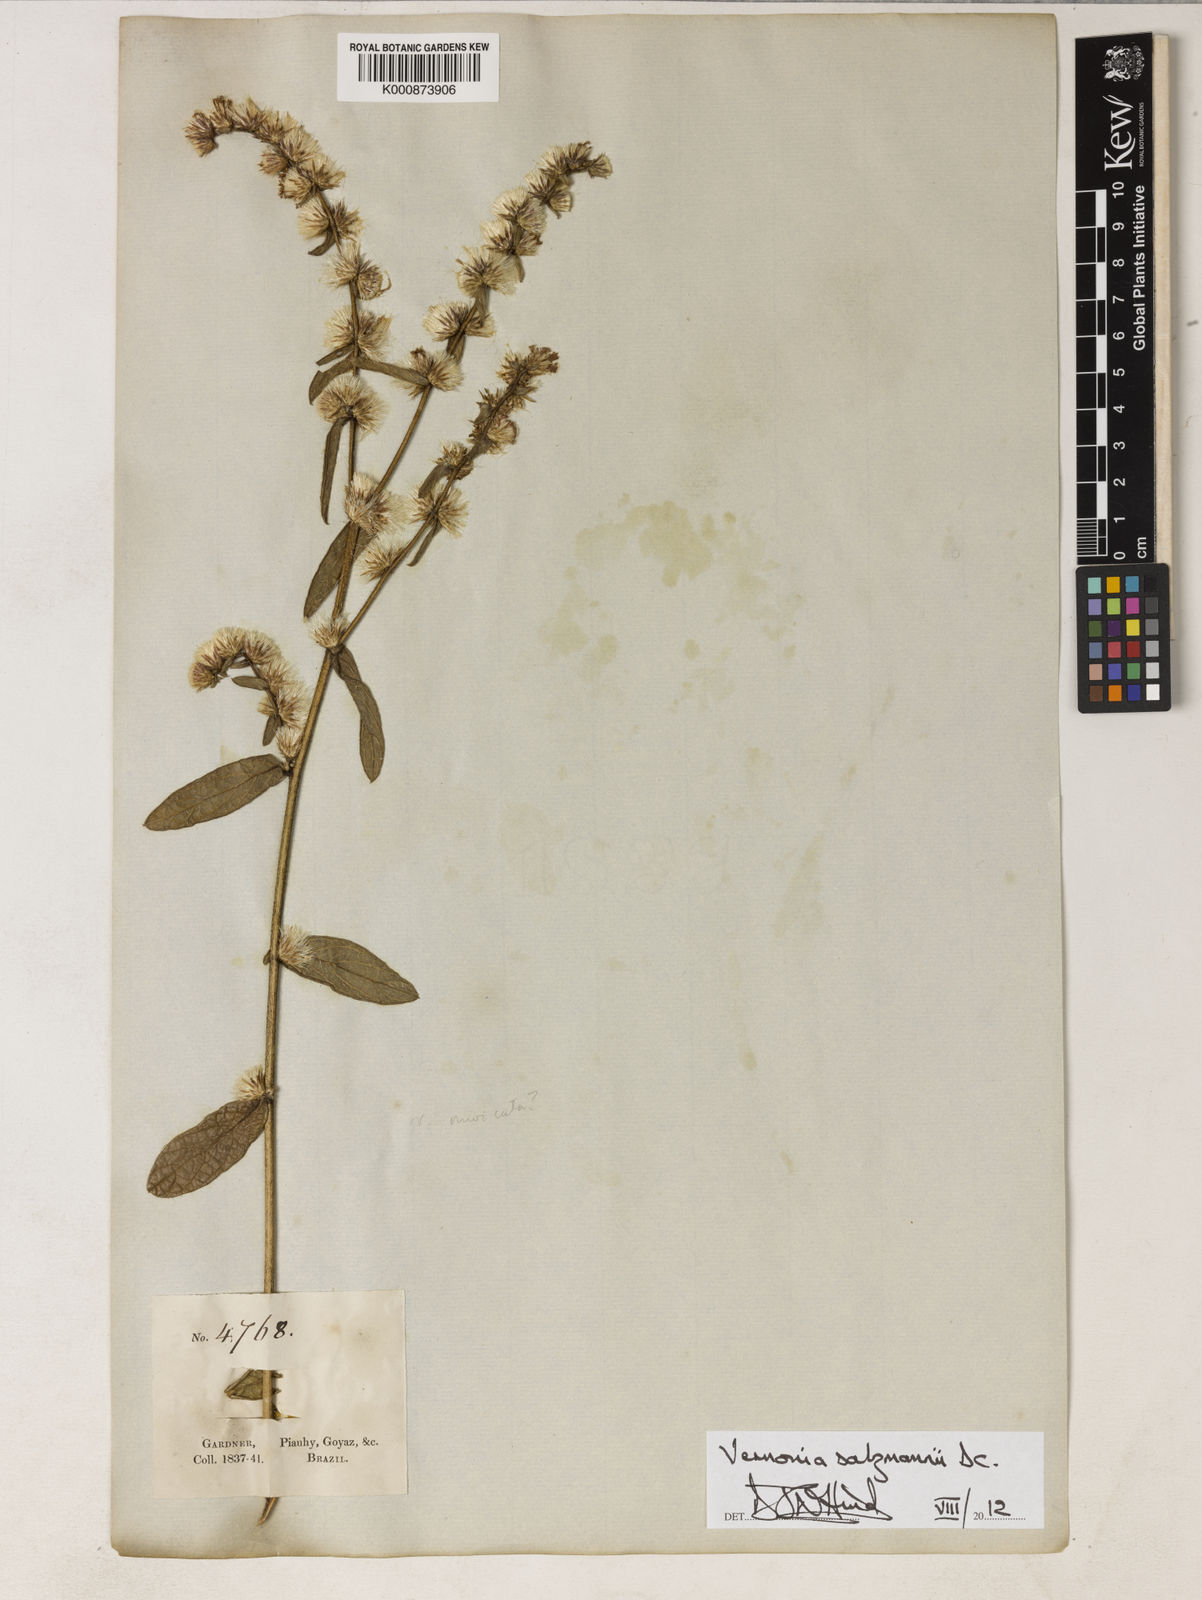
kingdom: Plantae
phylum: Tracheophyta
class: Magnoliopsida
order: Asterales
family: Asteraceae
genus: Lepidaploa
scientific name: Lepidaploa salzmannii
